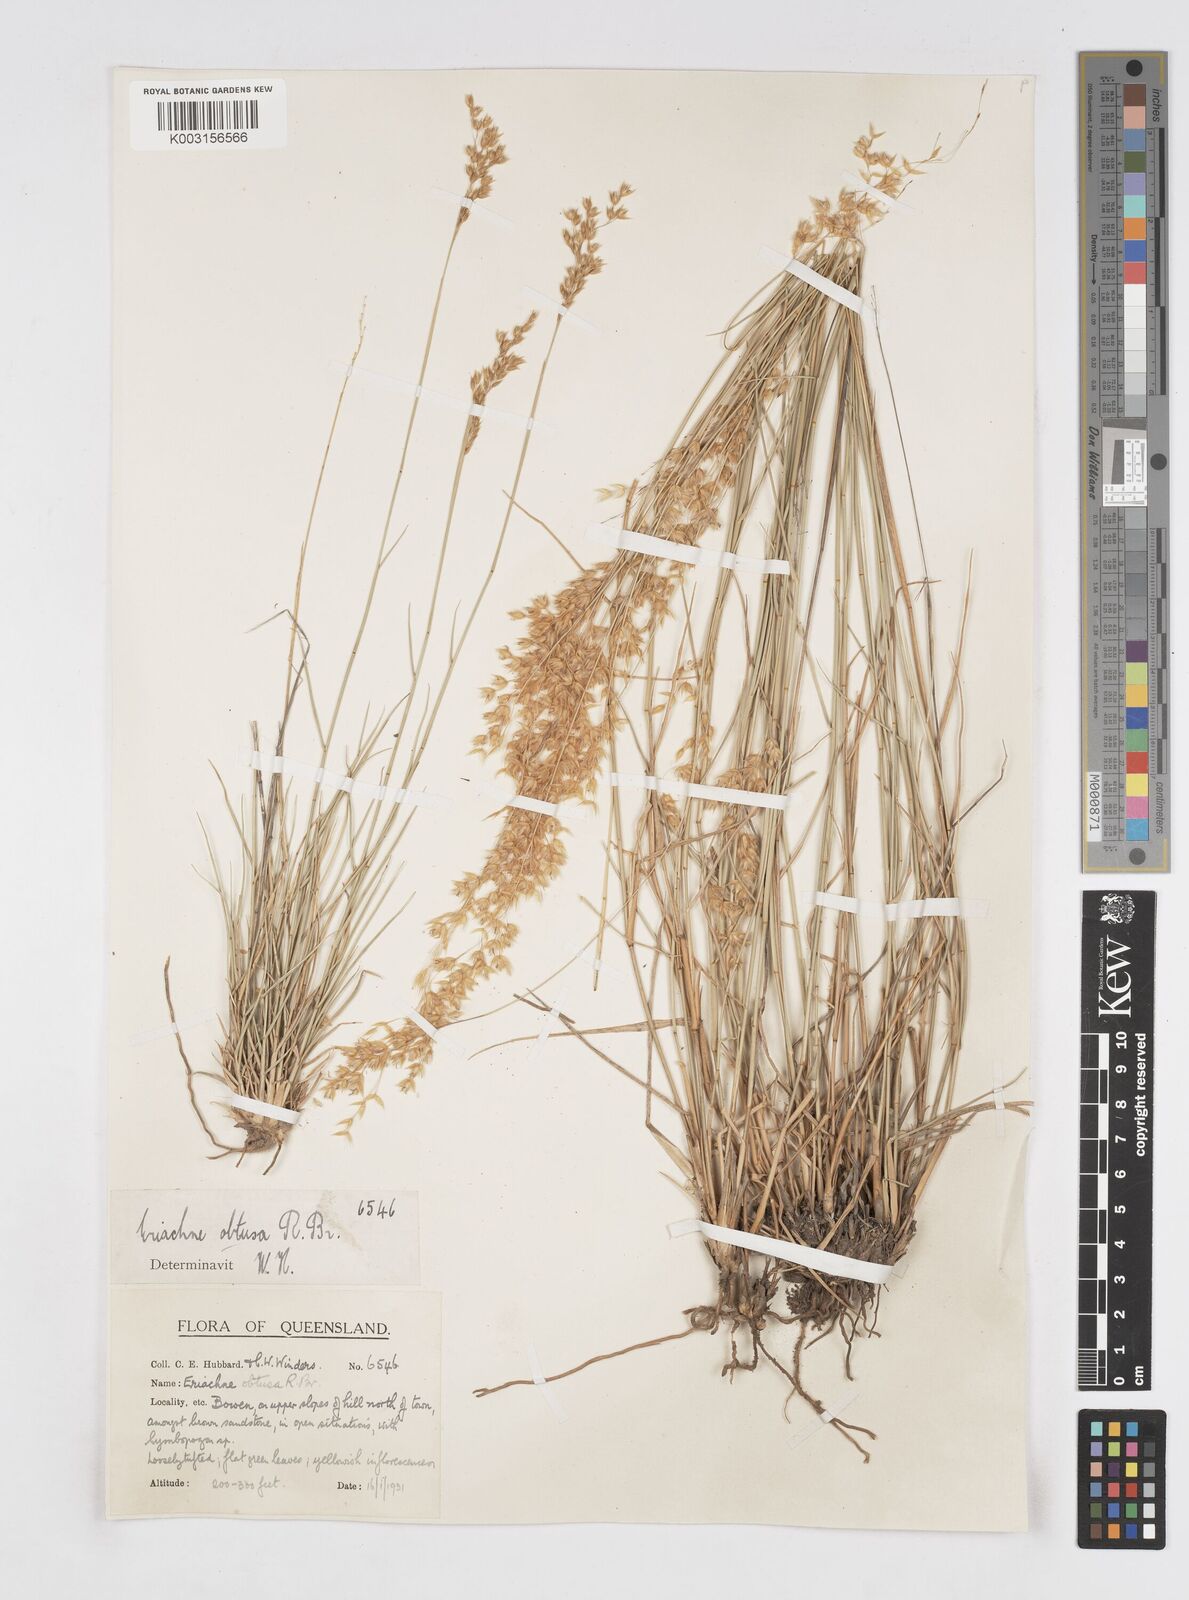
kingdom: Plantae
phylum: Tracheophyta
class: Liliopsida
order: Poales
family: Poaceae
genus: Eriachne
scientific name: Eriachne obtusa
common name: Northern wanderrie grass
